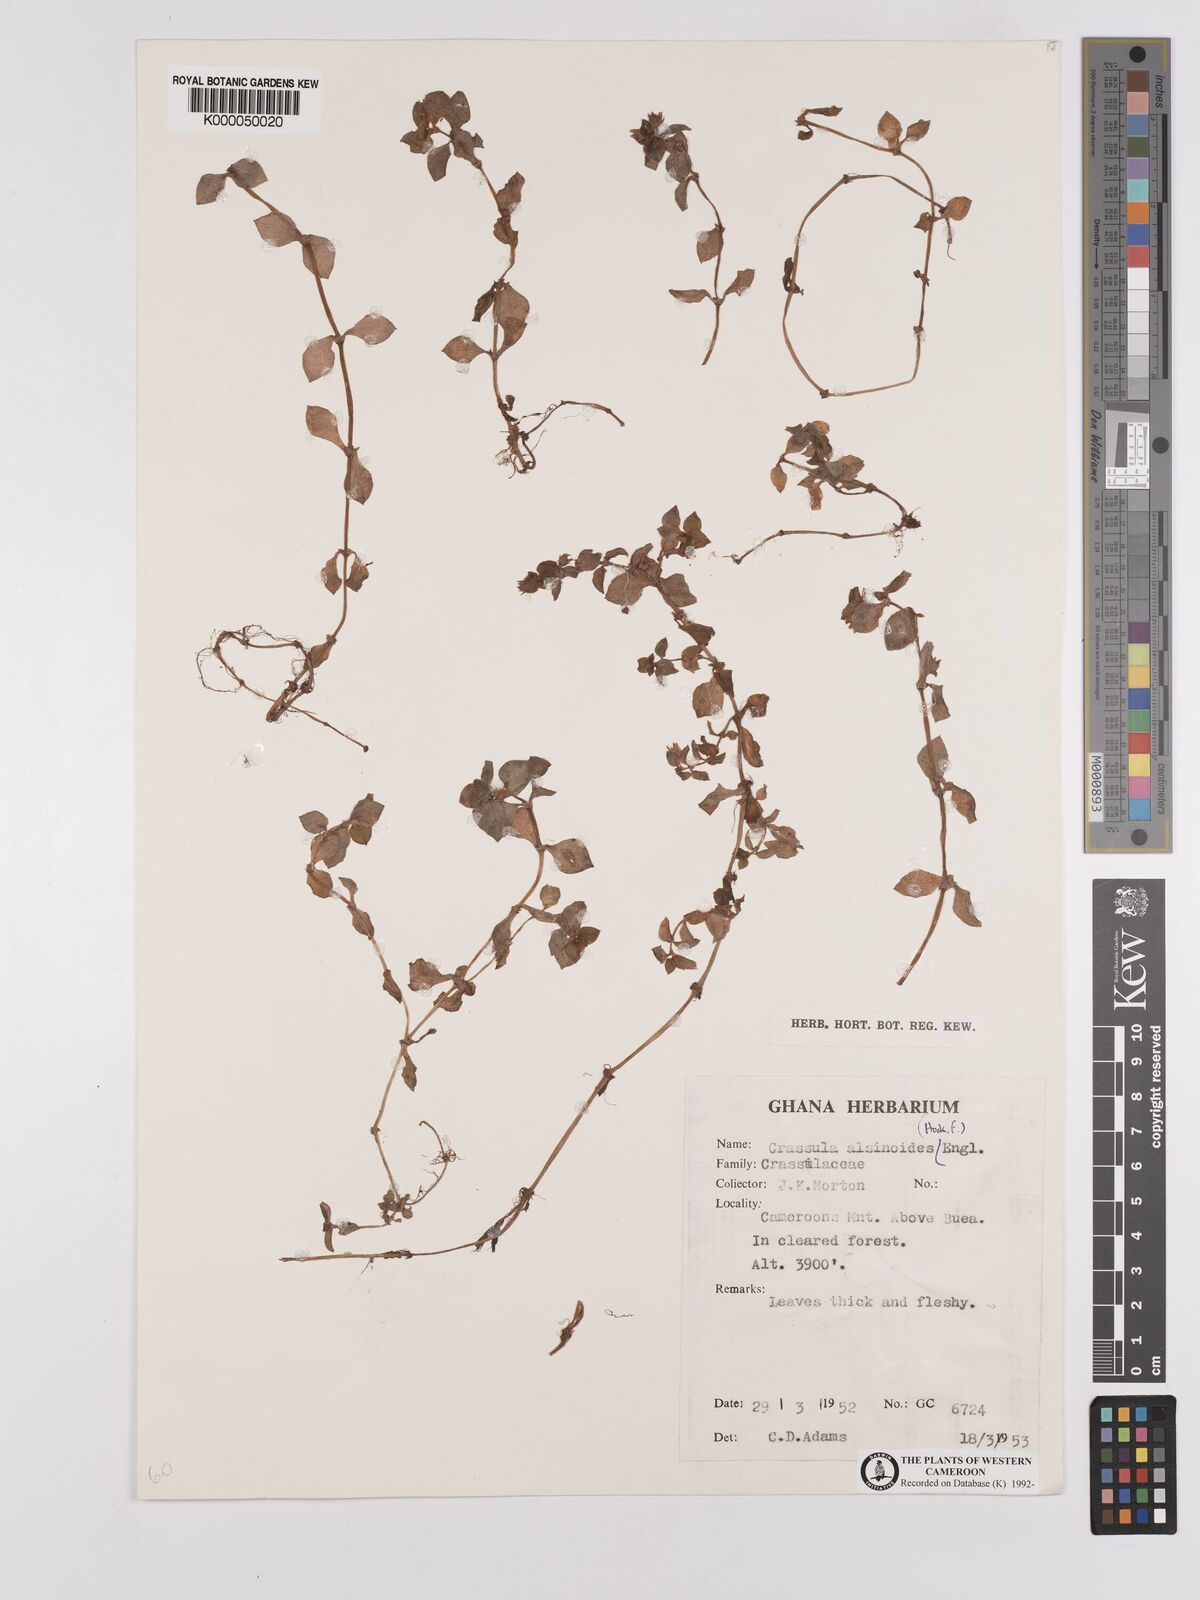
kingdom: Plantae
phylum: Tracheophyta
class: Magnoliopsida
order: Saxifragales
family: Crassulaceae
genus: Crassula
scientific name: Crassula alsinoides
